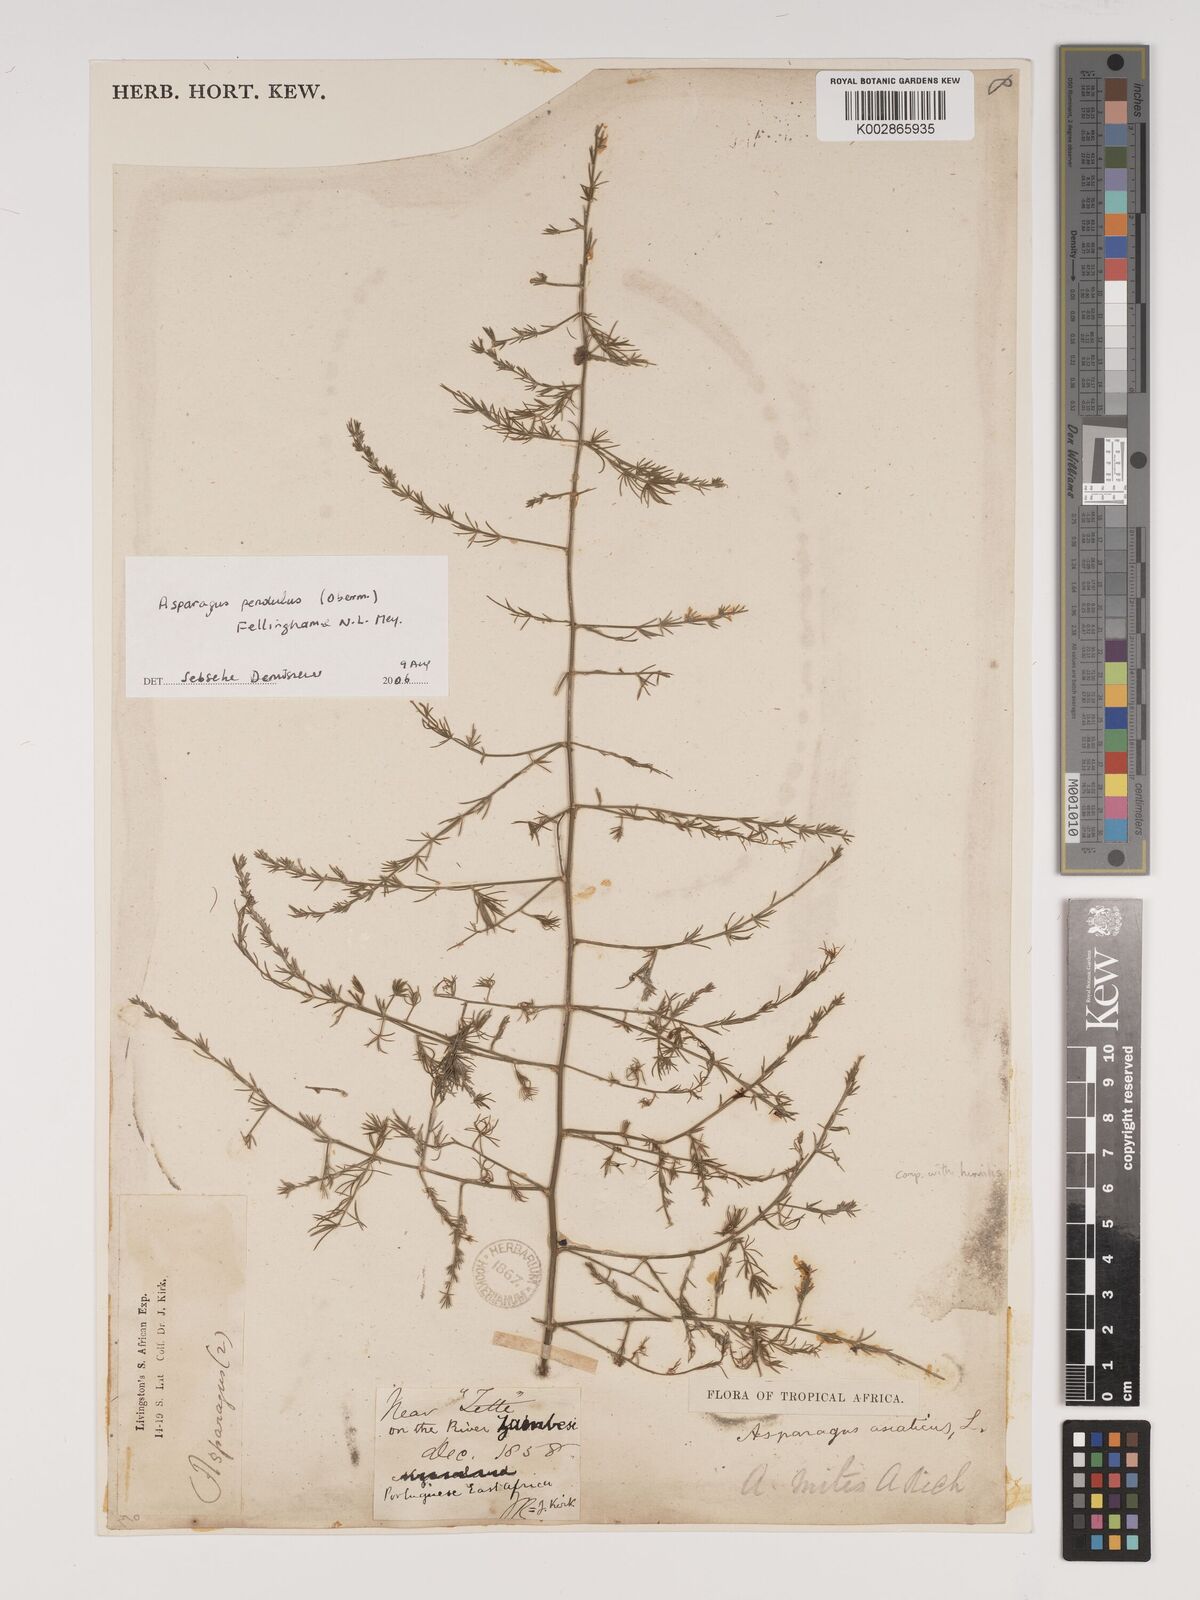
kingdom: Plantae
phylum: Tracheophyta
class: Liliopsida
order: Asparagales
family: Asparagaceae
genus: Asparagus
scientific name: Asparagus pendulus
